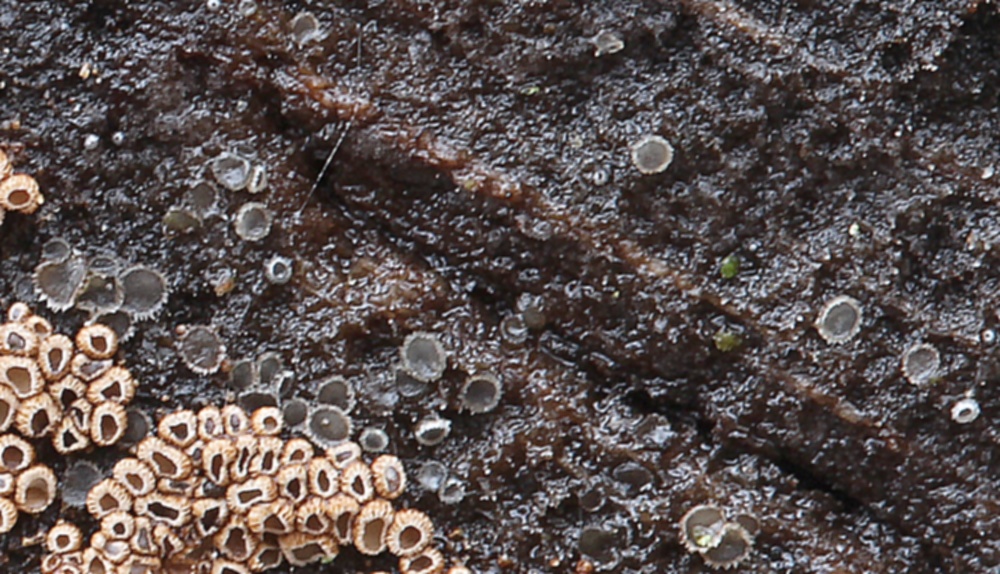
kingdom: Fungi
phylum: Ascomycota
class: Leotiomycetes
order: Helotiales
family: Hyaloscyphaceae
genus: Protounguicularia
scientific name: Protounguicularia transiens
